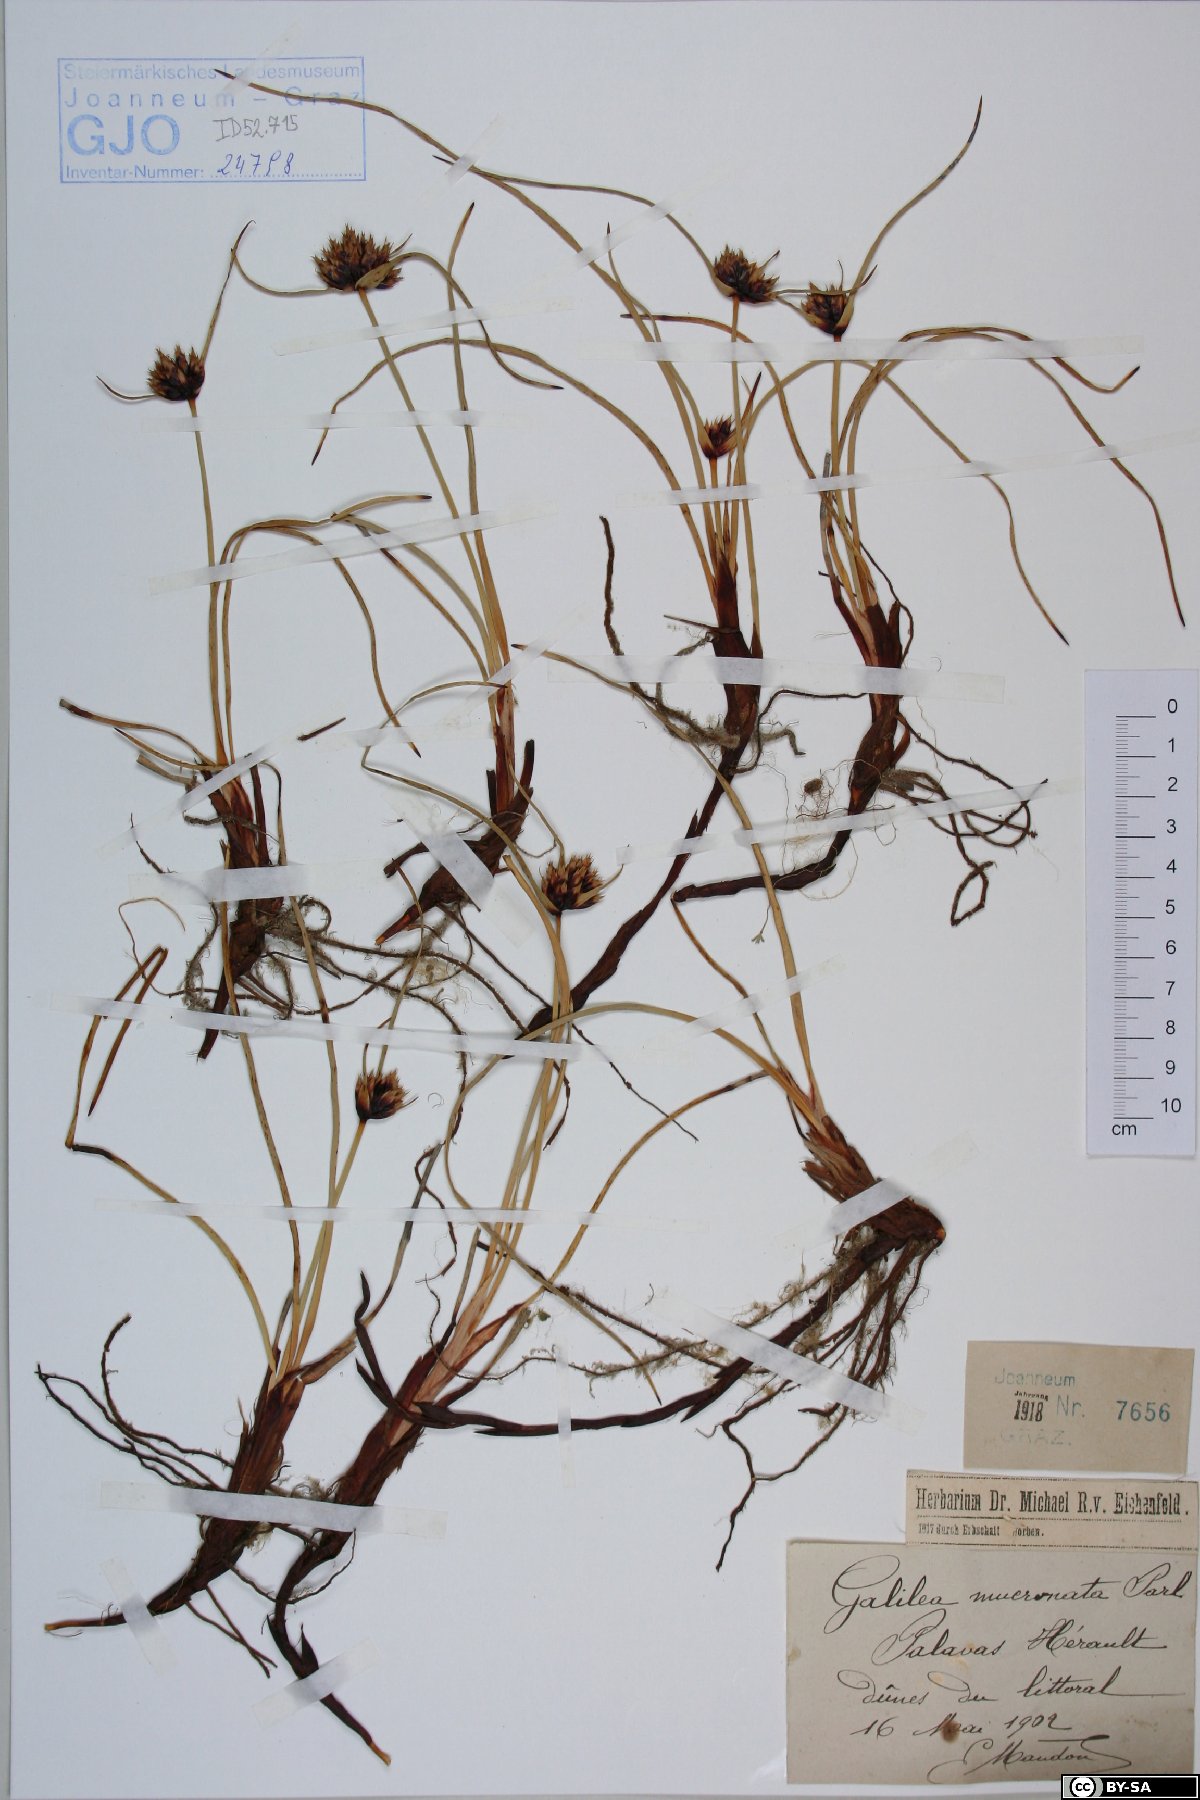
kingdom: Plantae
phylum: Tracheophyta
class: Liliopsida
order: Poales
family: Cyperaceae
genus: Cyperus
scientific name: Cyperus capitatus
